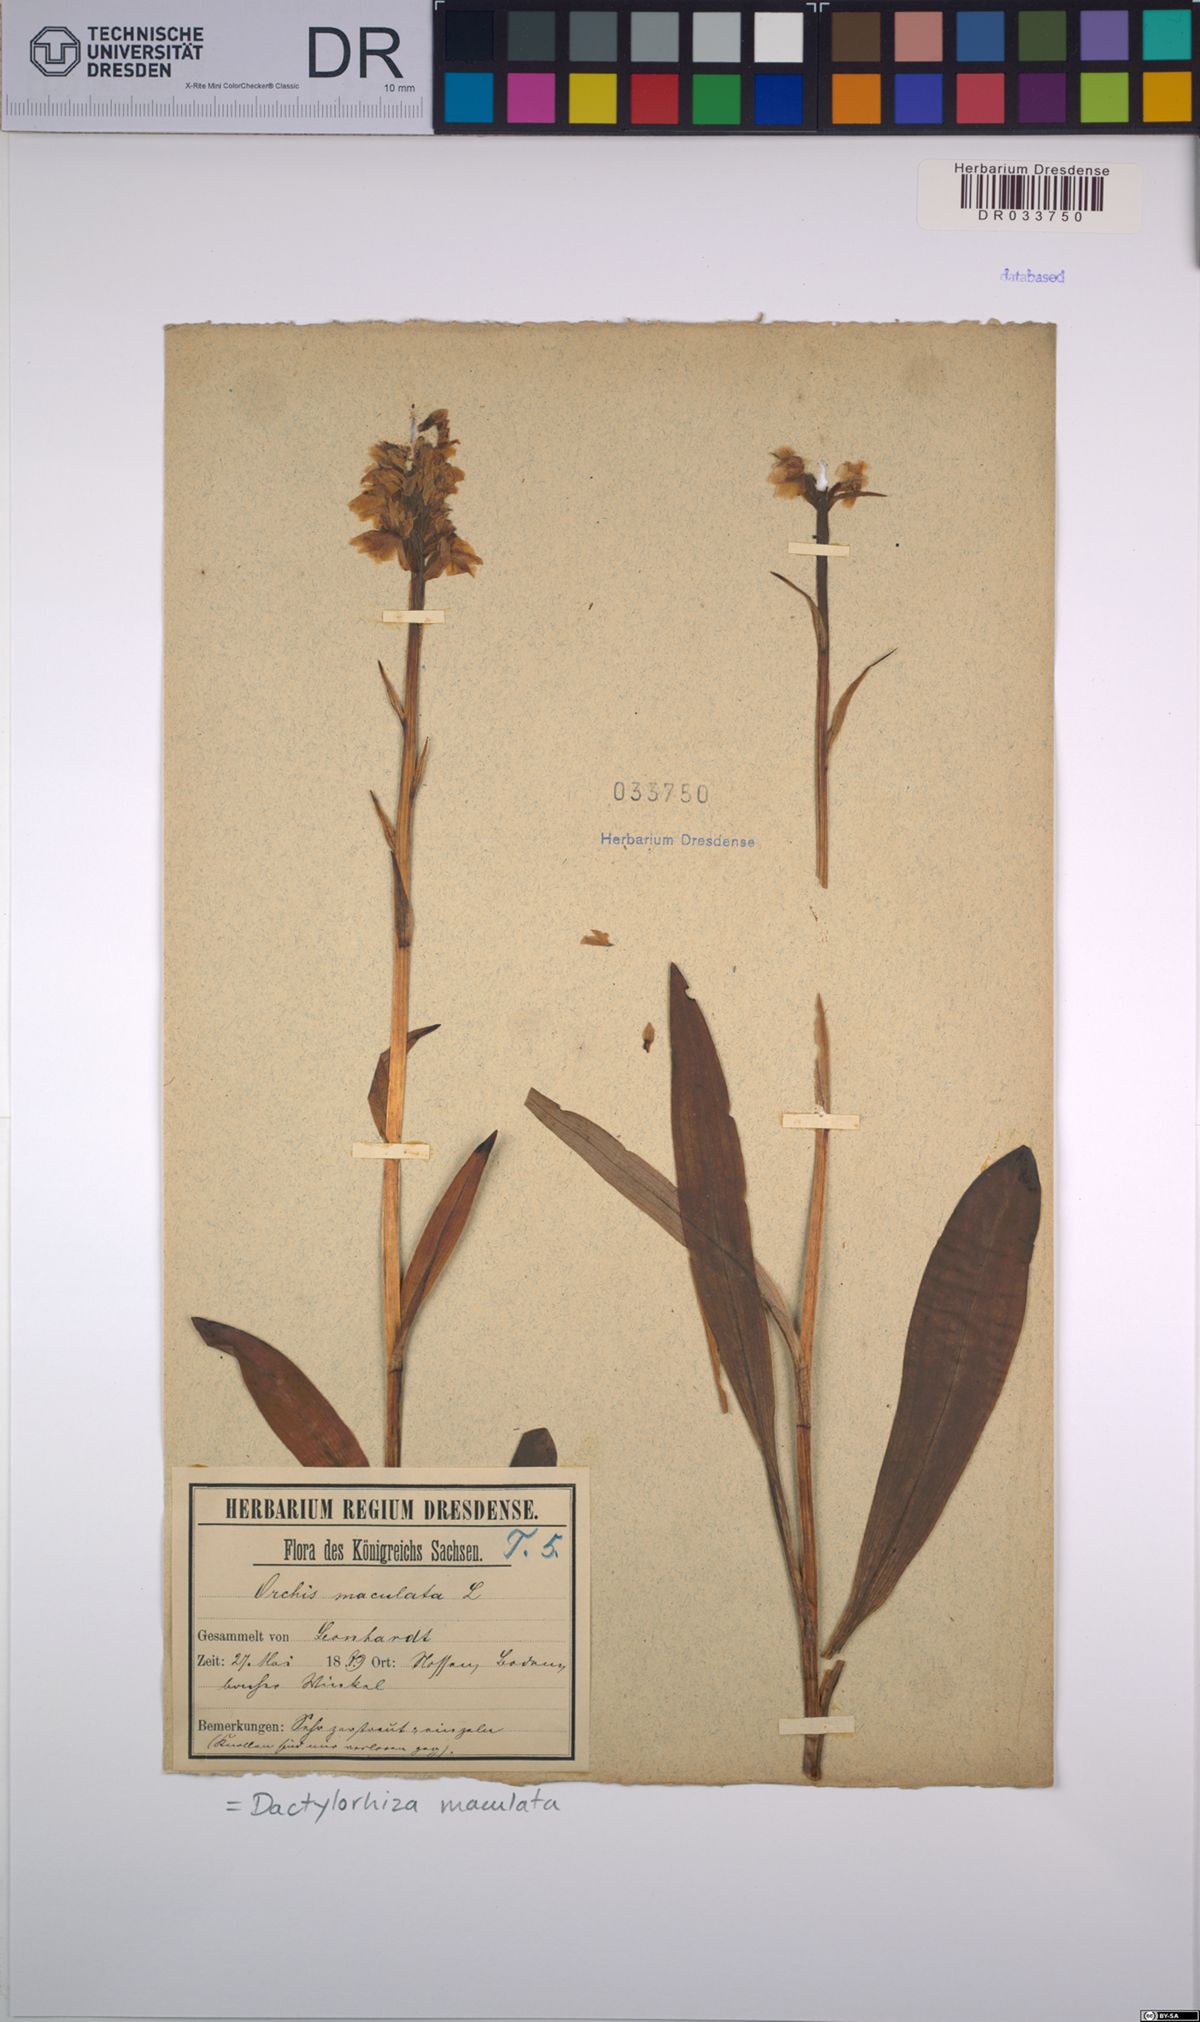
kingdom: Plantae
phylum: Tracheophyta
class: Liliopsida
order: Asparagales
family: Orchidaceae
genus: Dactylorhiza
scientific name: Dactylorhiza maculata
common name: Heath spotted-orchid
